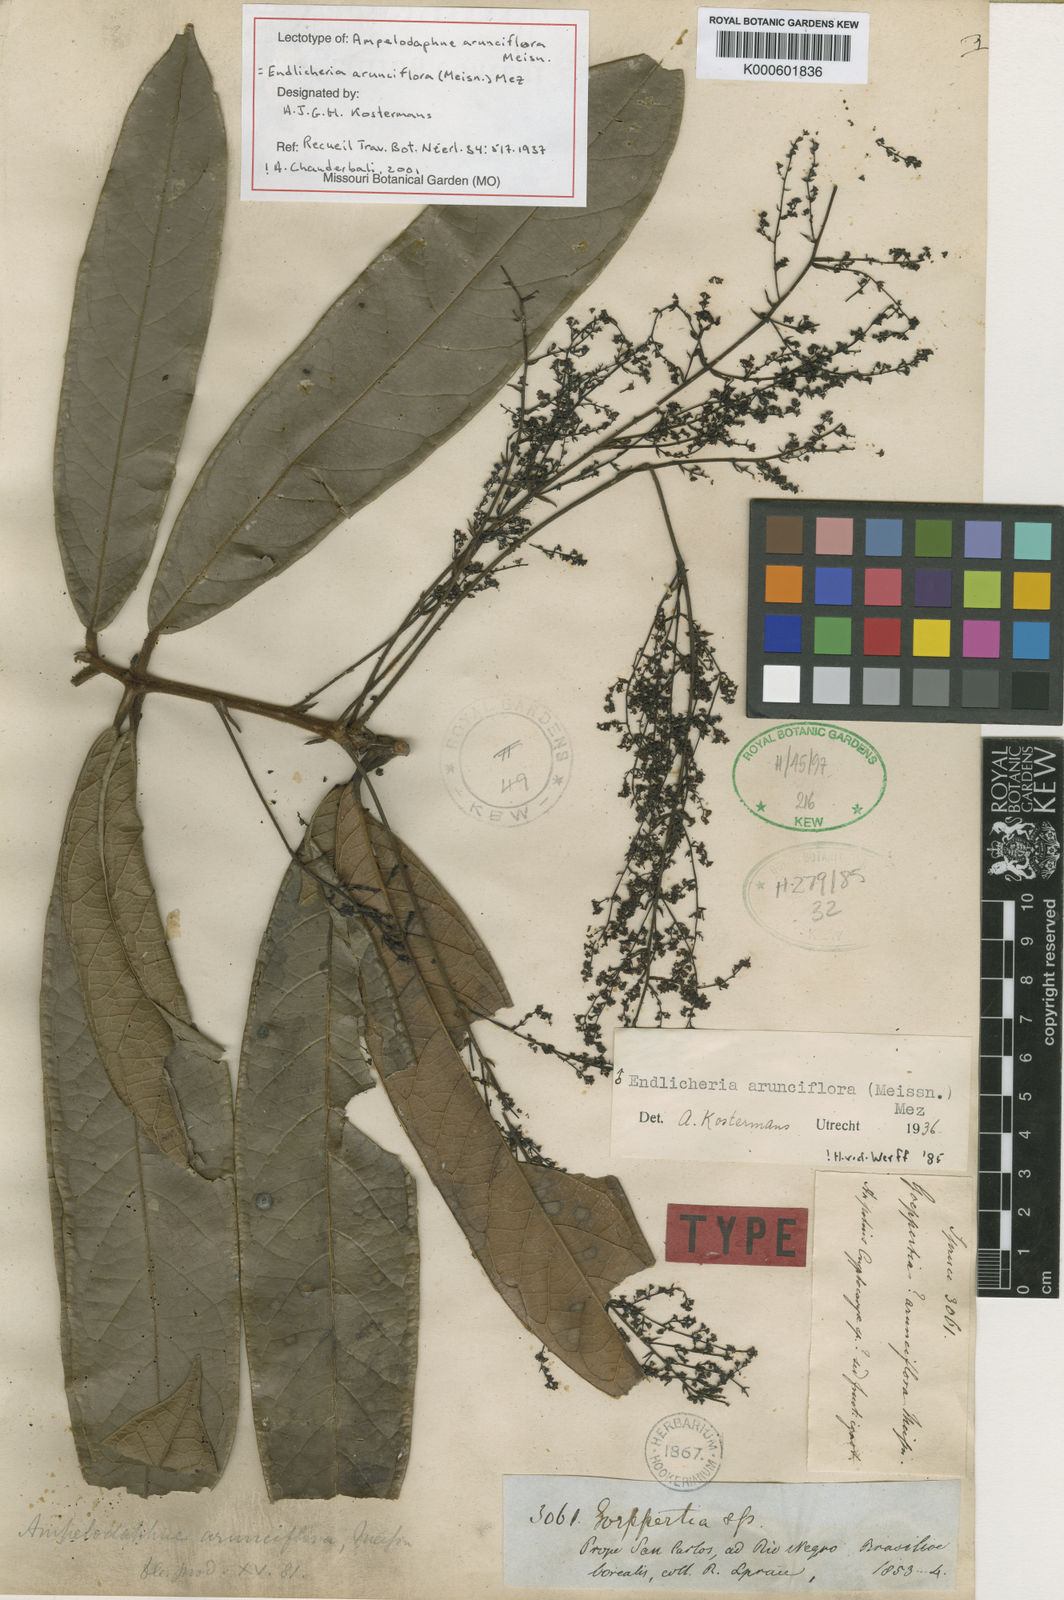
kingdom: Plantae
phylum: Tracheophyta
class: Magnoliopsida
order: Laurales
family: Lauraceae
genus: Endlicheria
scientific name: Endlicheria arunciflora
